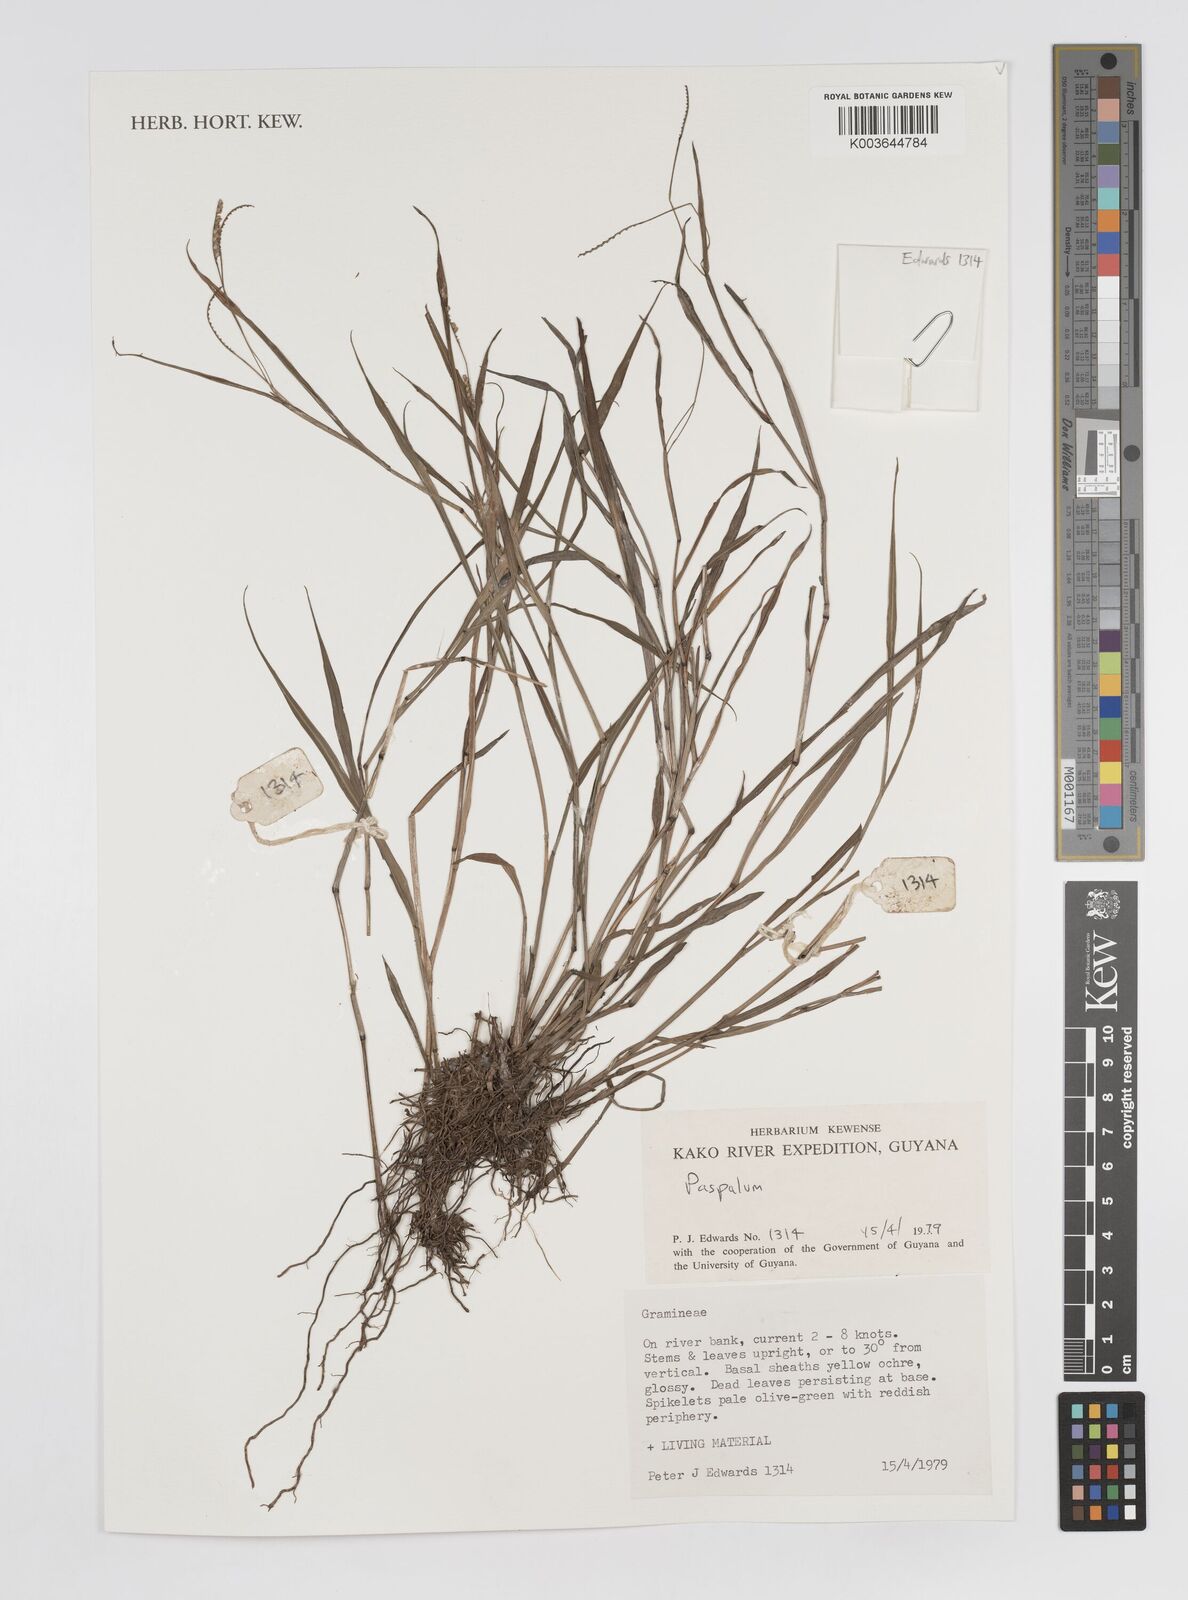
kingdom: Plantae
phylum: Tracheophyta
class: Liliopsida
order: Poales
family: Poaceae
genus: Paspalum
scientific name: Paspalum
